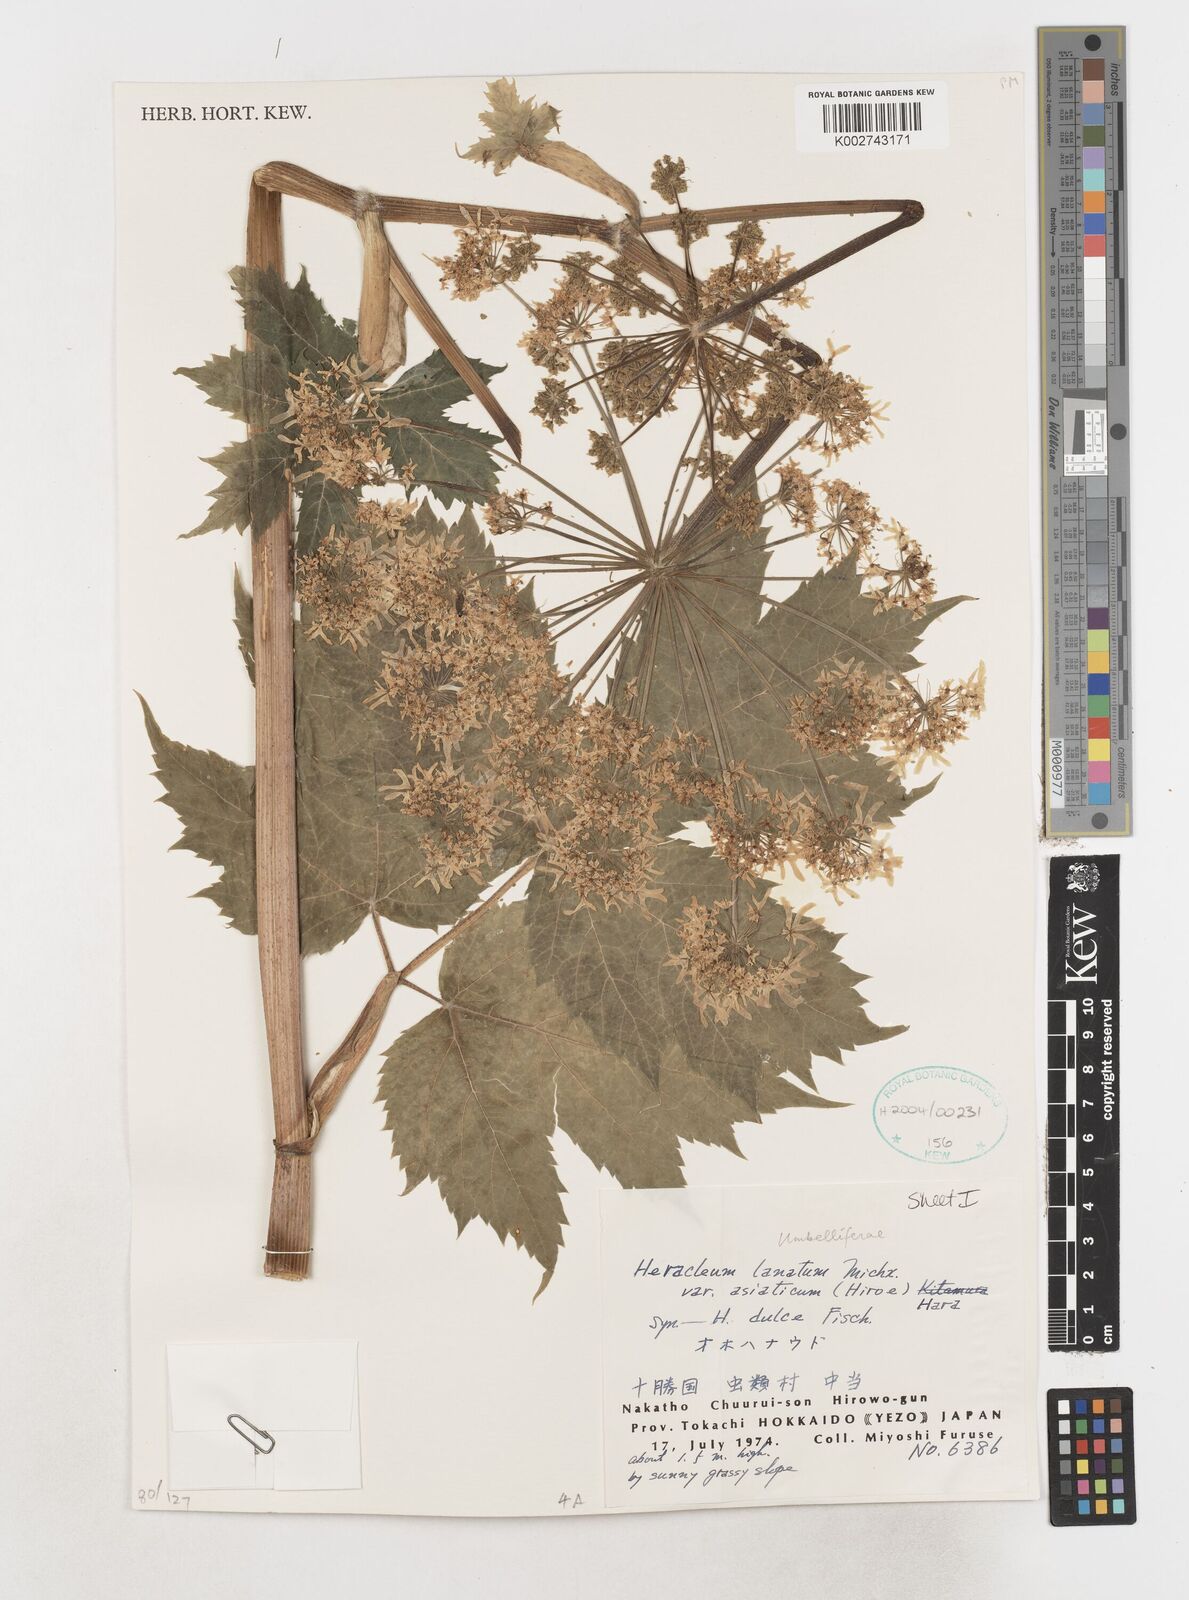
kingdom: Plantae
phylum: Tracheophyta
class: Magnoliopsida
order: Apiales
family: Apiaceae
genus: Heracleum
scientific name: Heracleum maximum
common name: American cow parsnip
